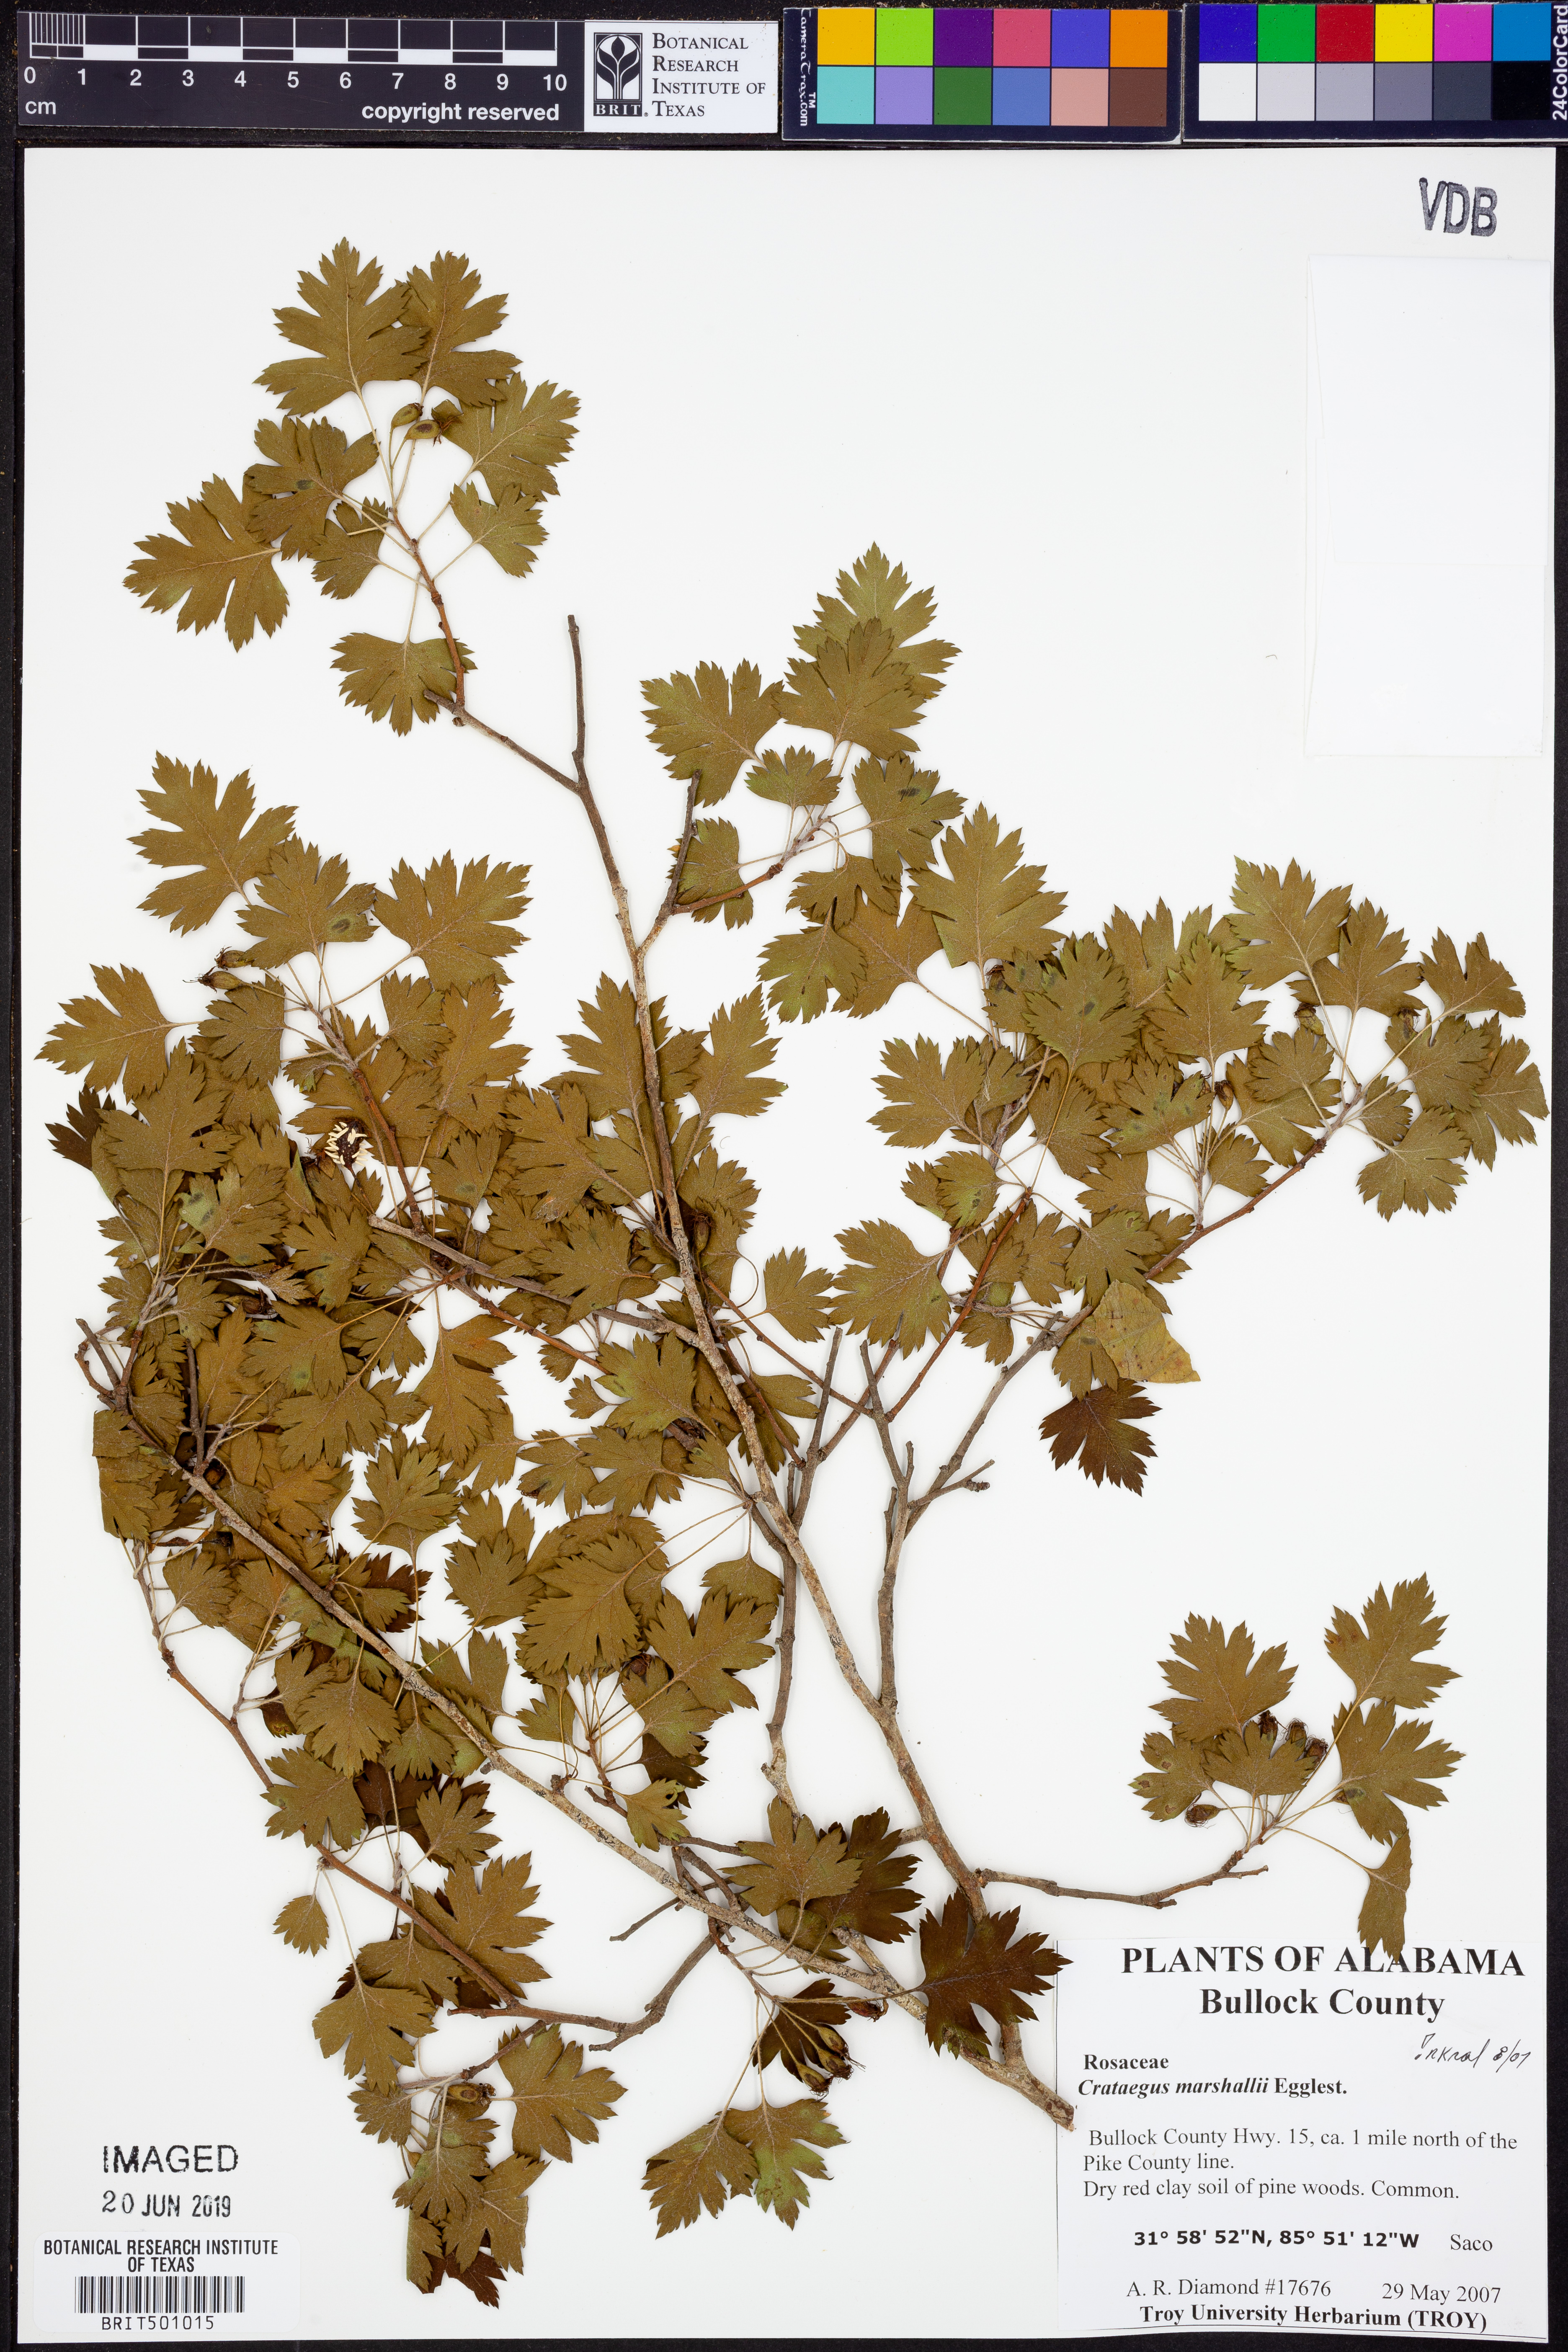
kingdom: Plantae
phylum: Tracheophyta
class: Magnoliopsida
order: Rosales
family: Rosaceae
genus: Crataegus
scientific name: Crataegus marshallii
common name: Parsley-hawthorn
